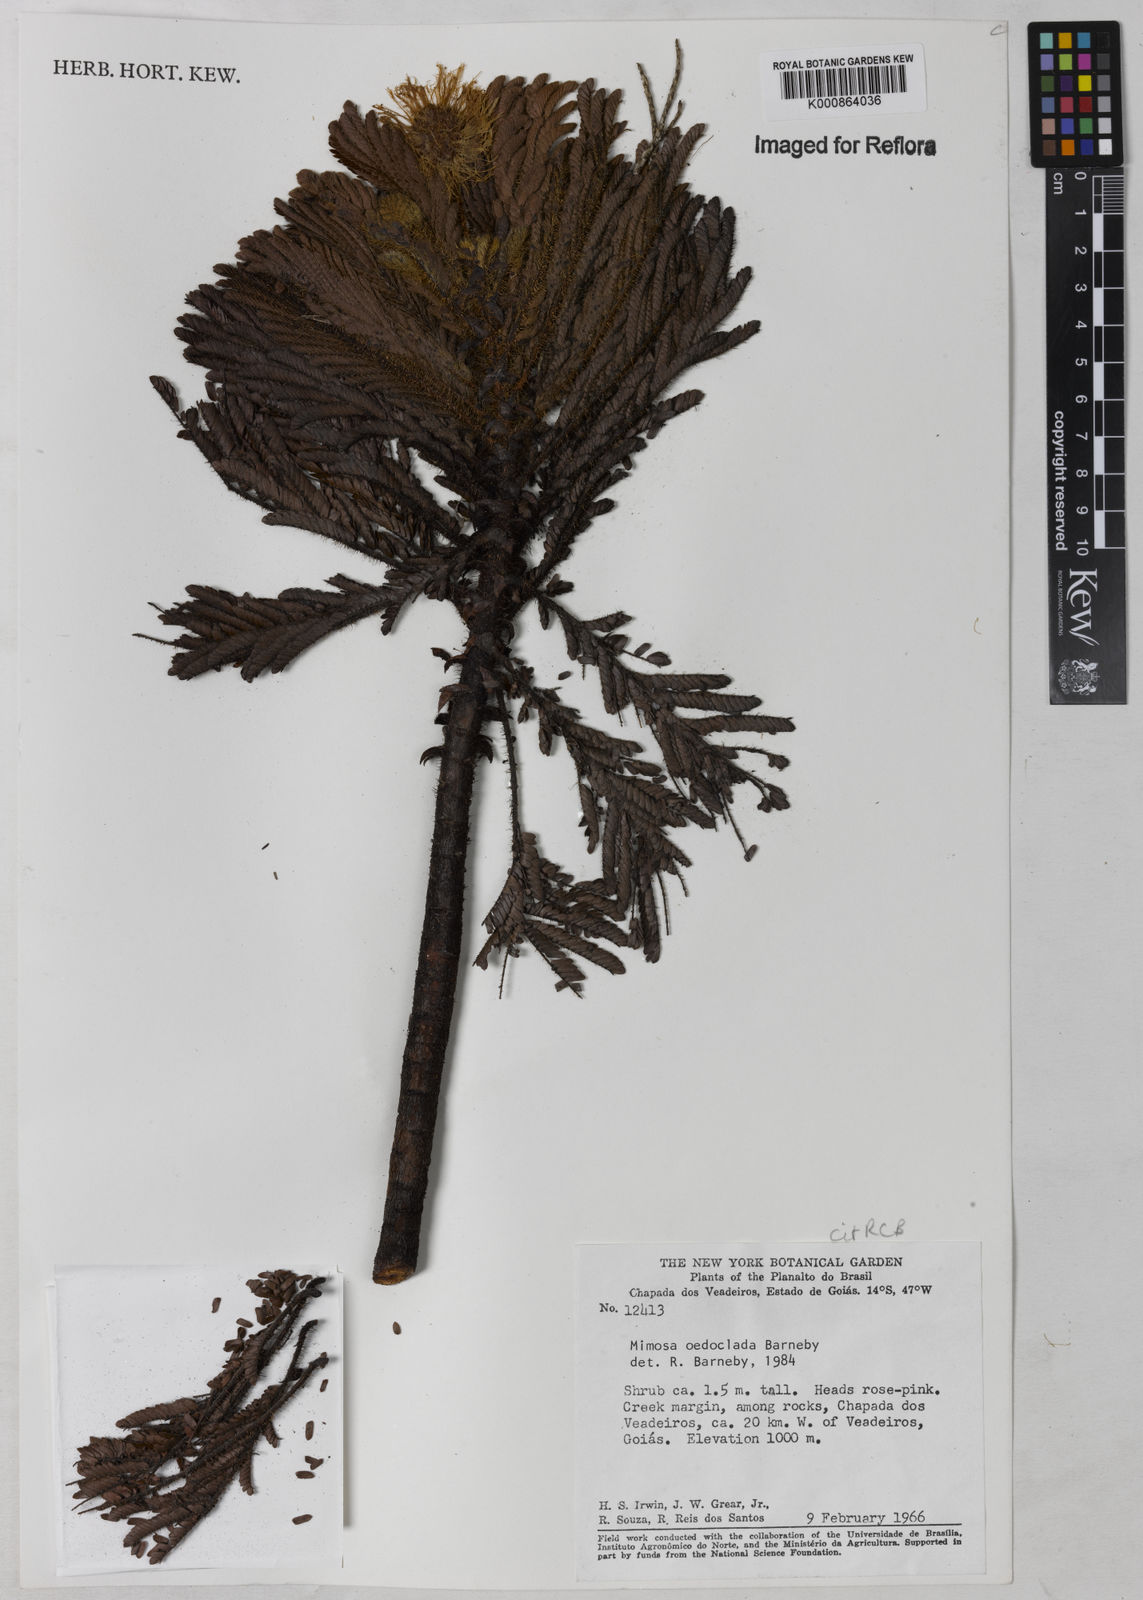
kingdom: Plantae
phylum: Tracheophyta
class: Magnoliopsida
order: Fabales
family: Fabaceae
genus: Mimosa
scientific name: Mimosa oedoclada
